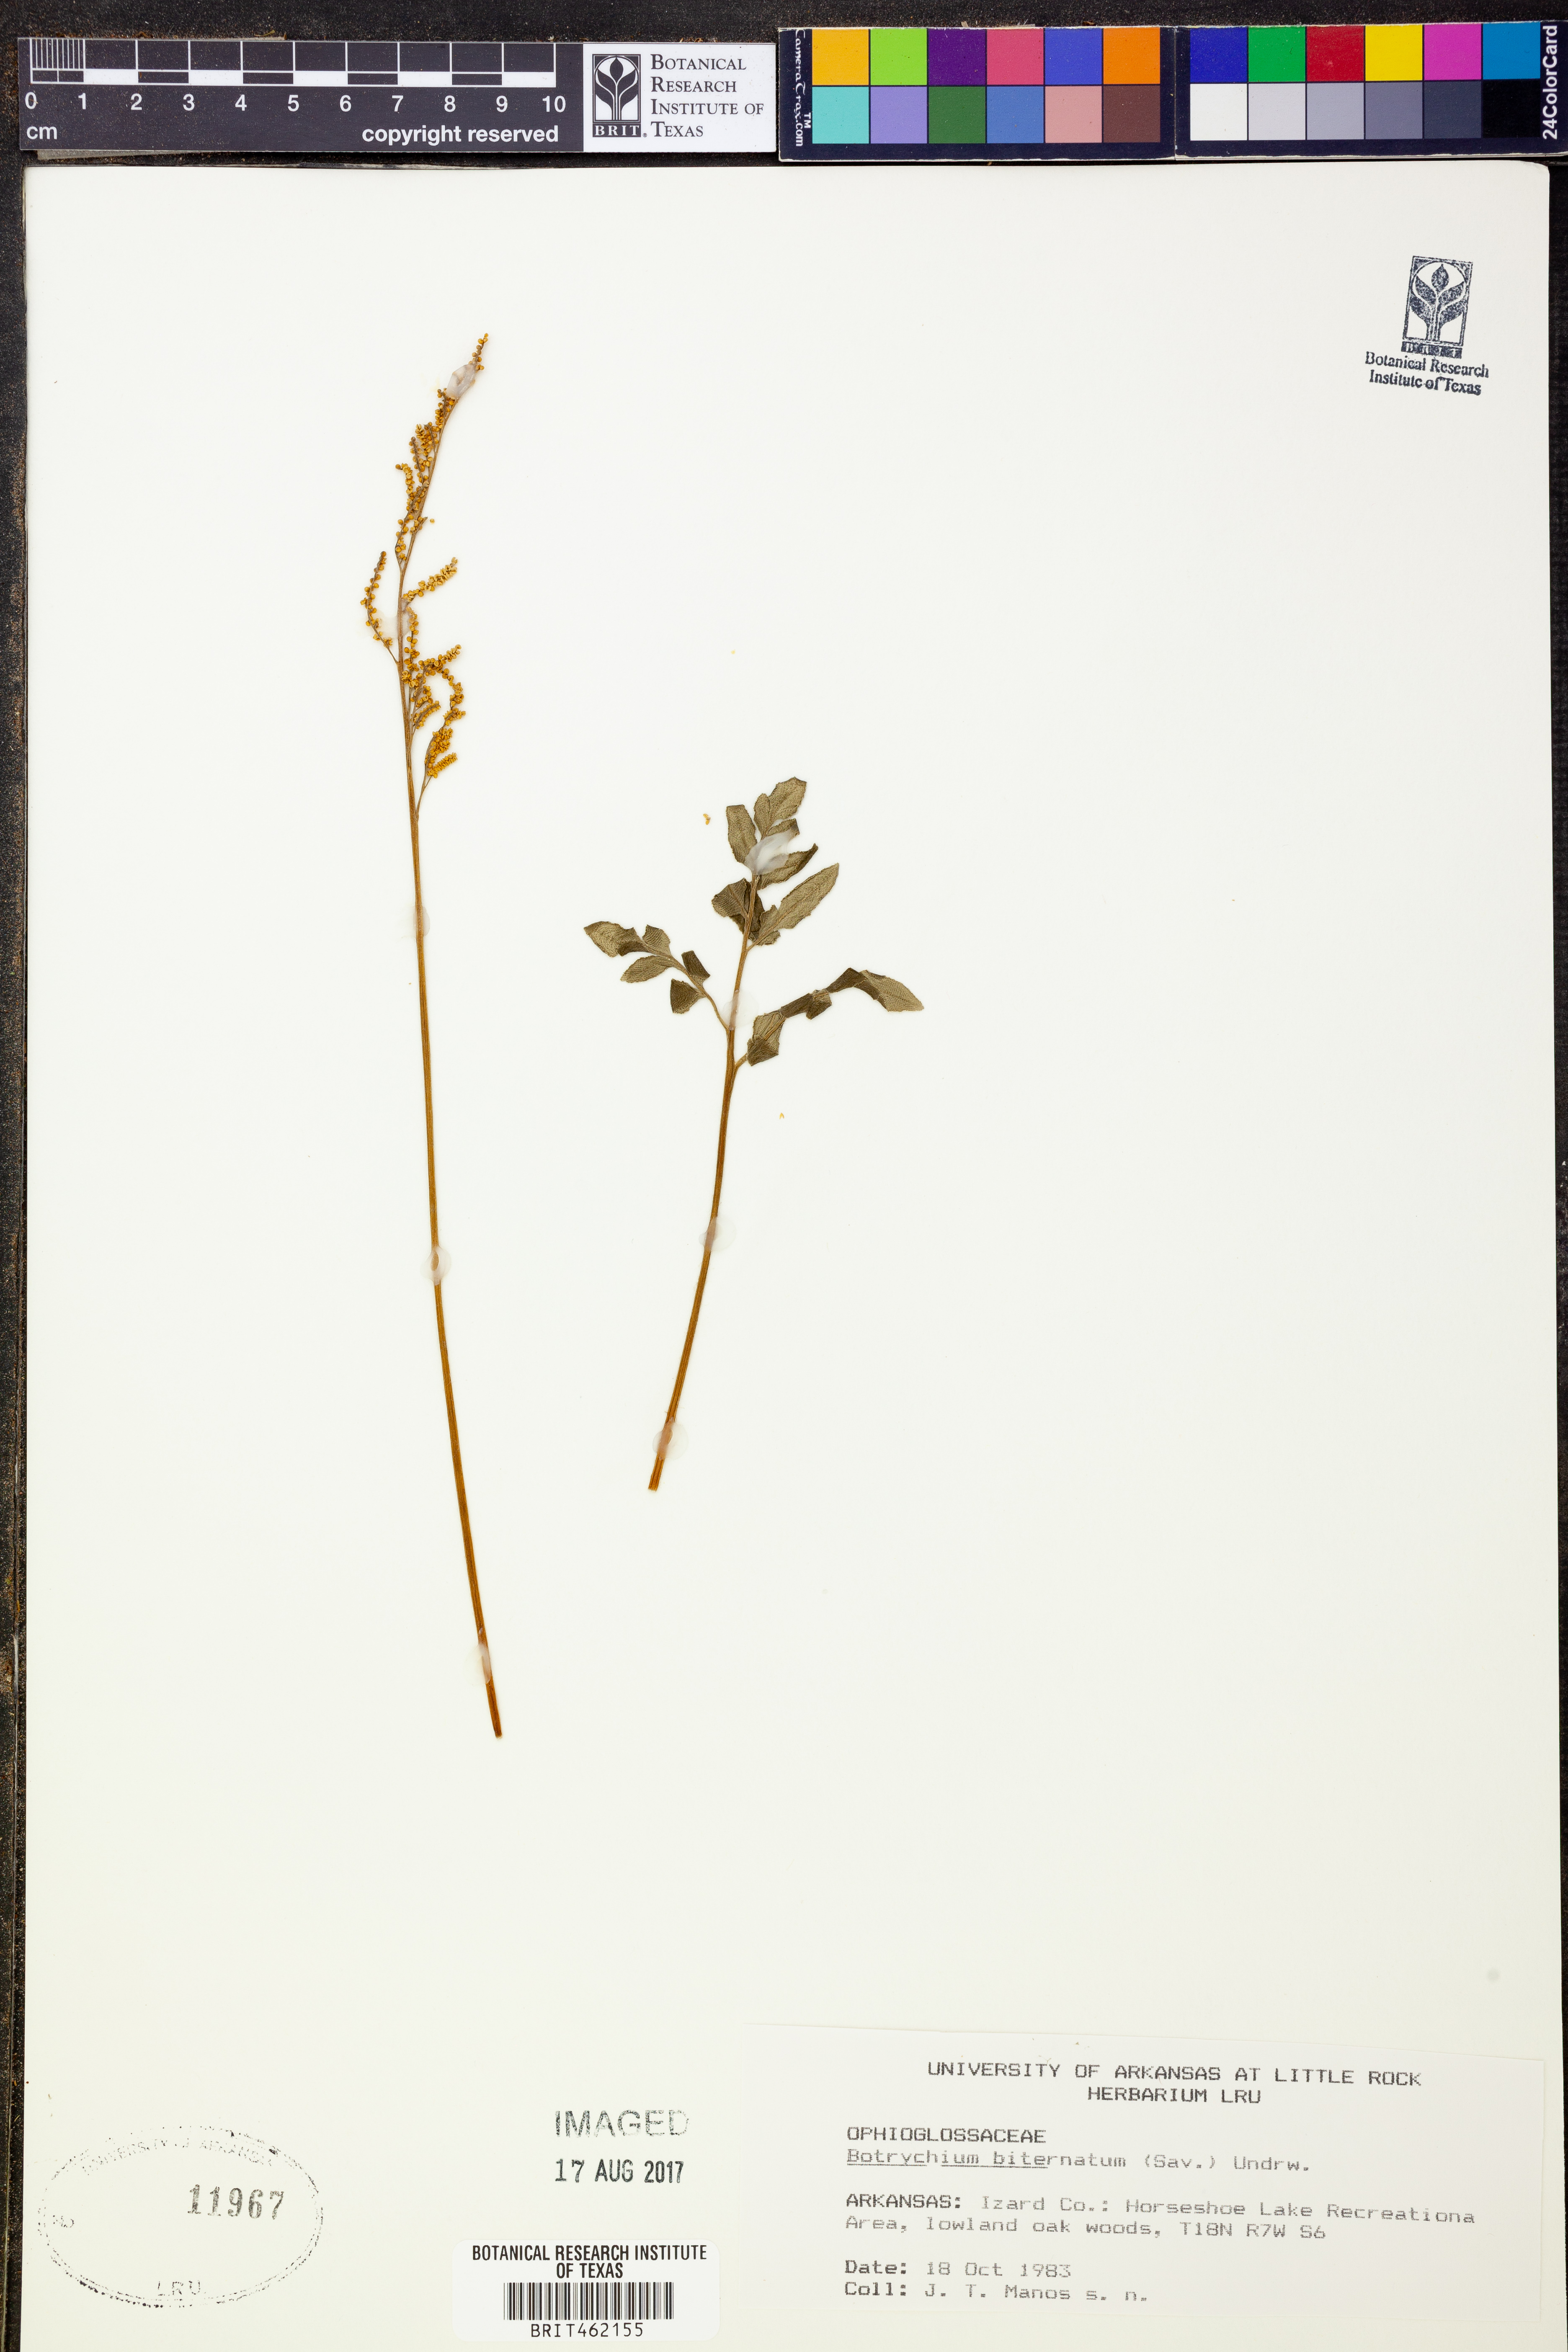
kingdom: Plantae
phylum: Tracheophyta
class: Polypodiopsida
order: Ophioglossales
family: Ophioglossaceae
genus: Sceptridium
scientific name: Sceptridium biternatum
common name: Sparse-lobed grapefern
